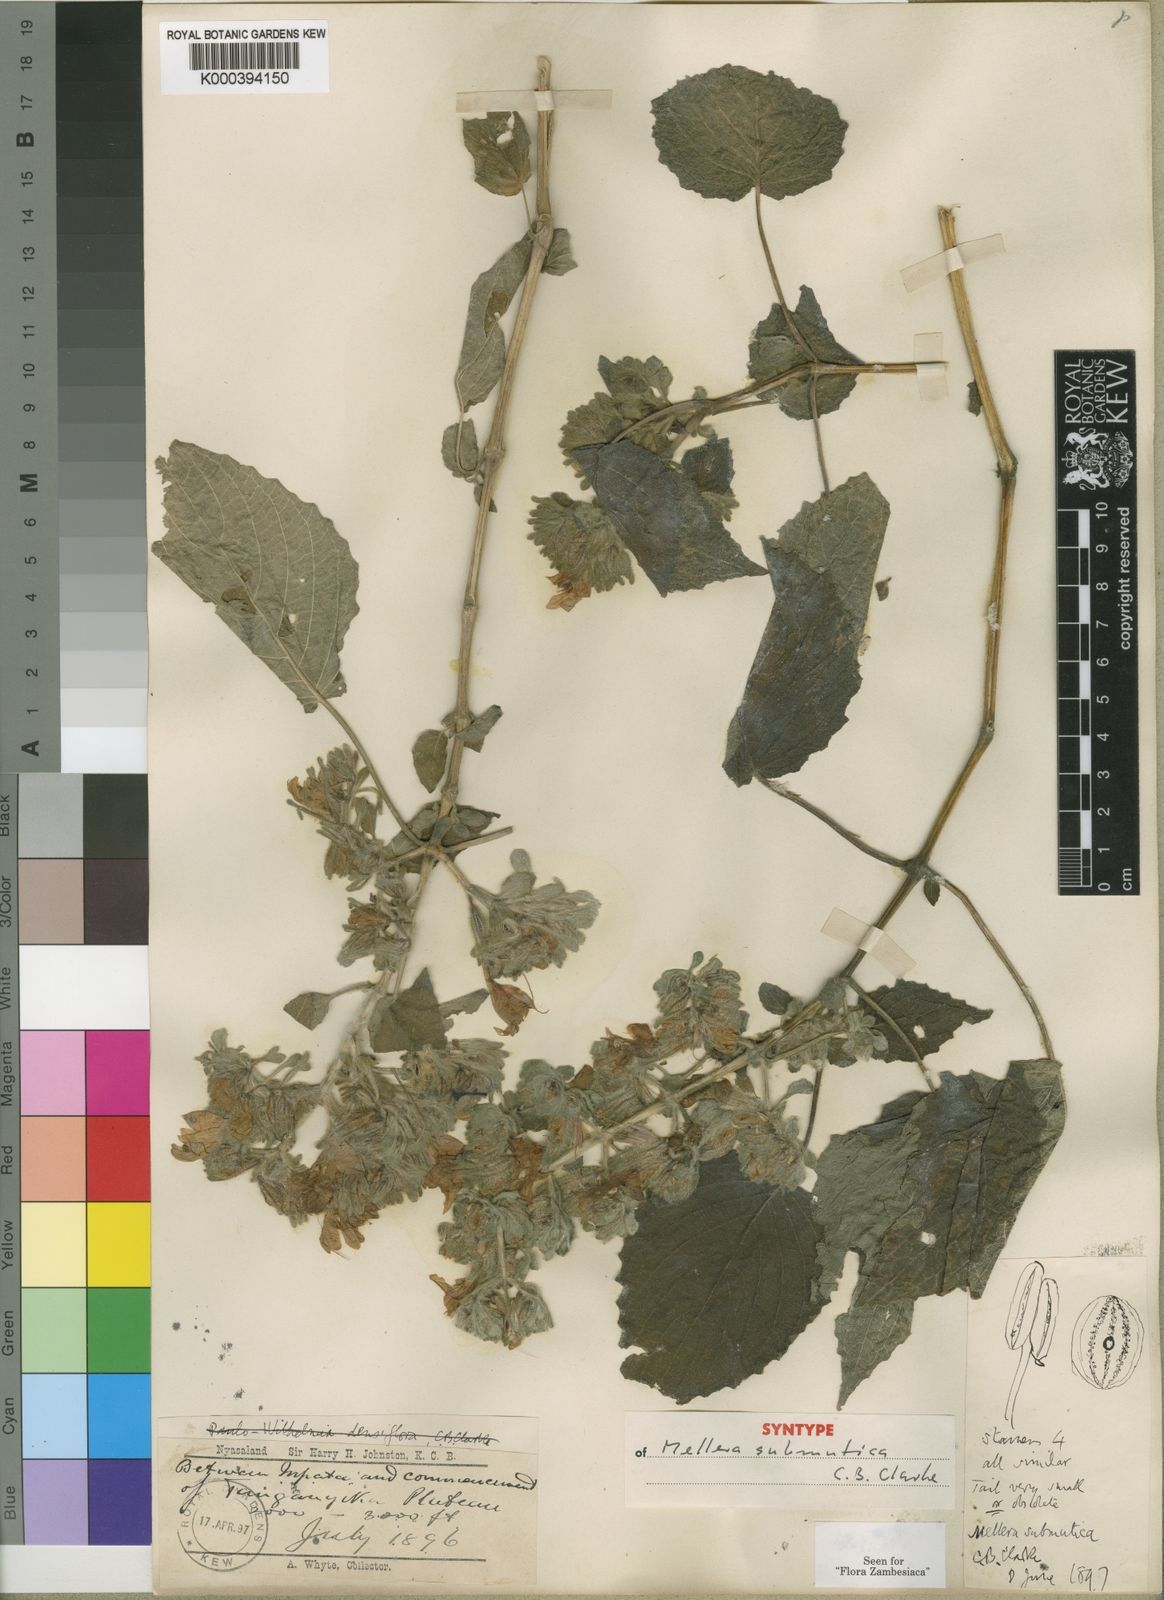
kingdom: Plantae
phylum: Tracheophyta
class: Magnoliopsida
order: Lamiales
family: Acanthaceae
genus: Mellera
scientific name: Mellera submutica
